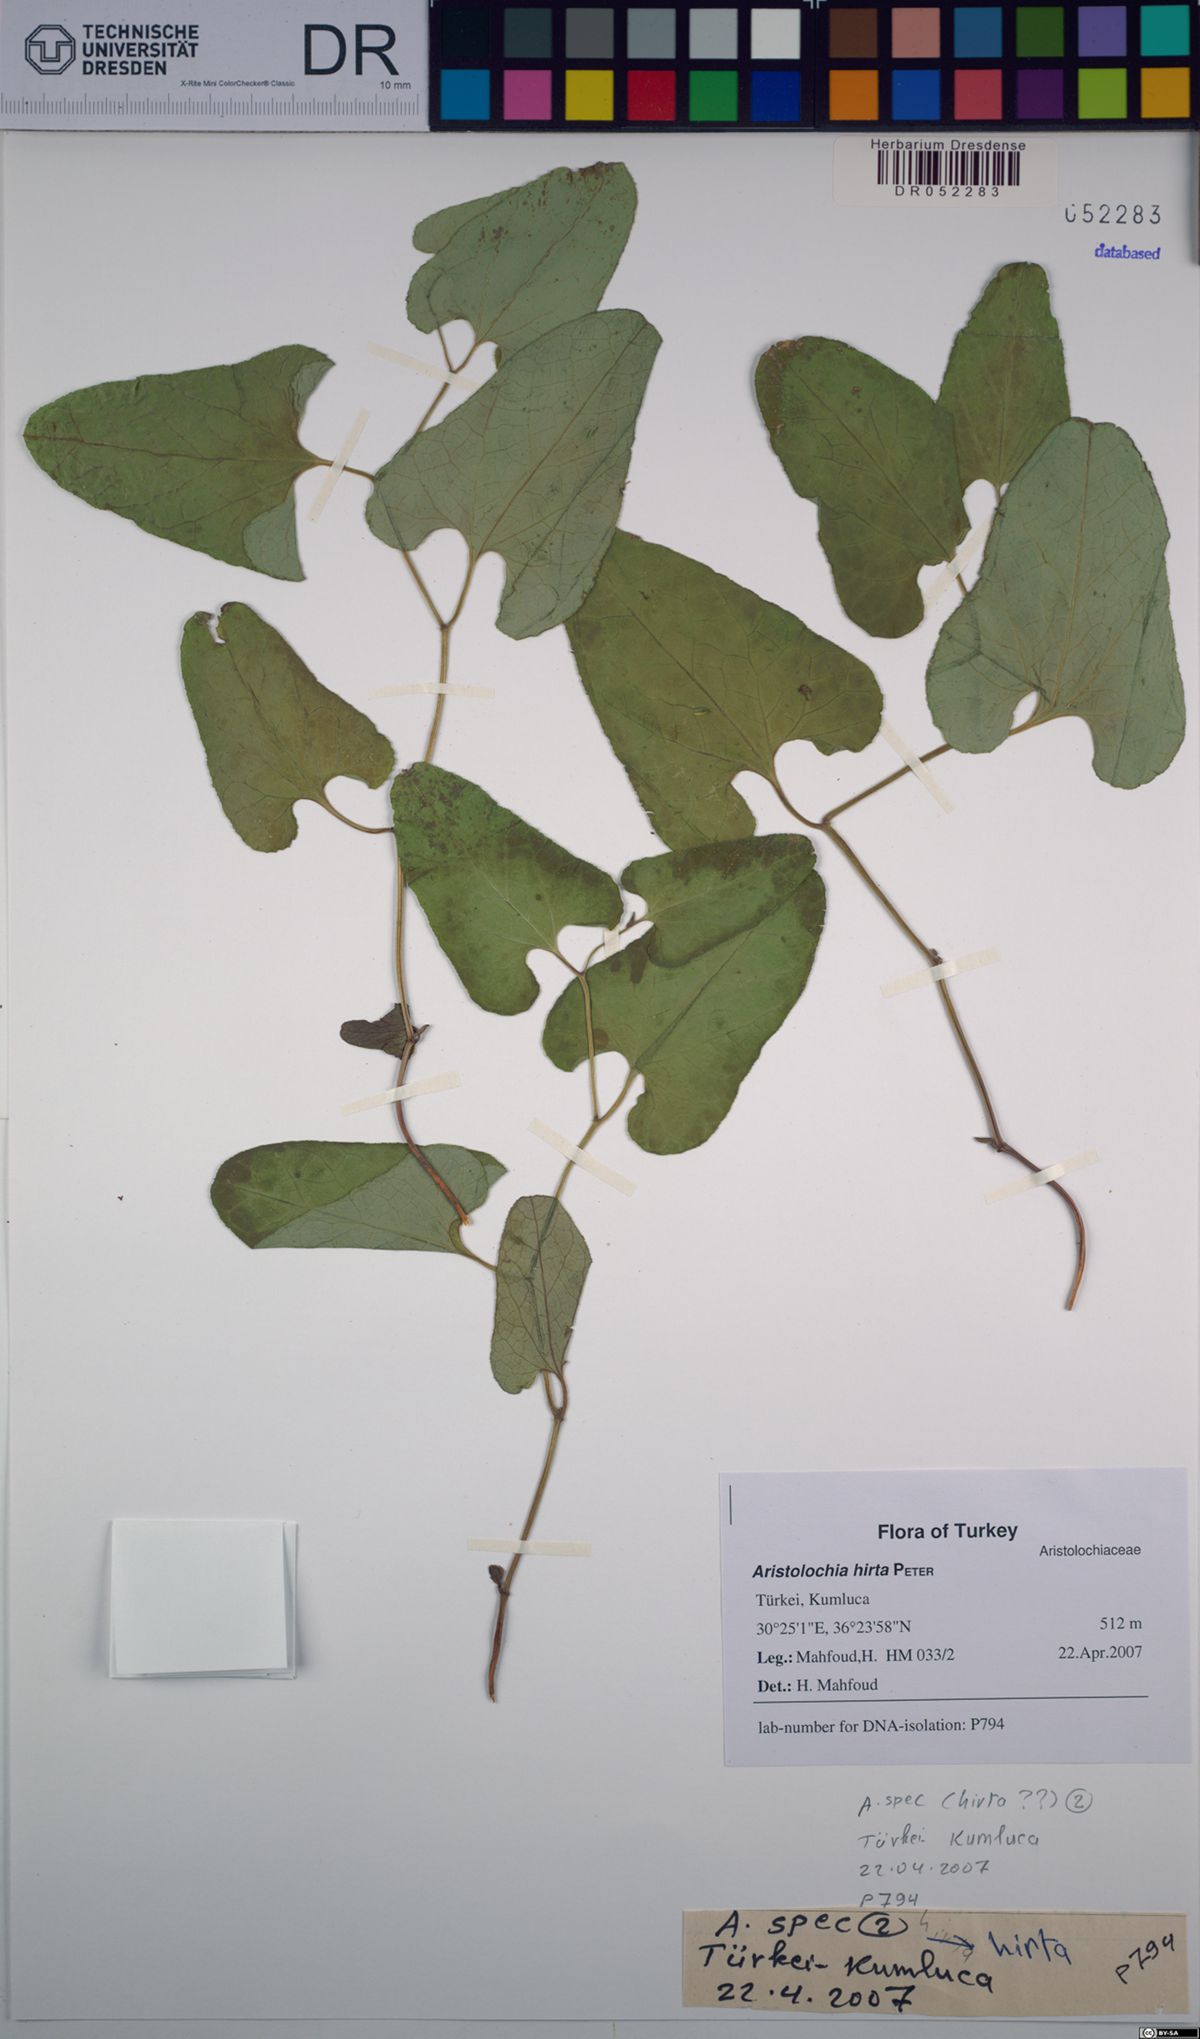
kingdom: Plantae
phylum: Tracheophyta
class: Magnoliopsida
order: Piperales
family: Aristolochiaceae
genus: Aristolochia
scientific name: Aristolochia hockii
